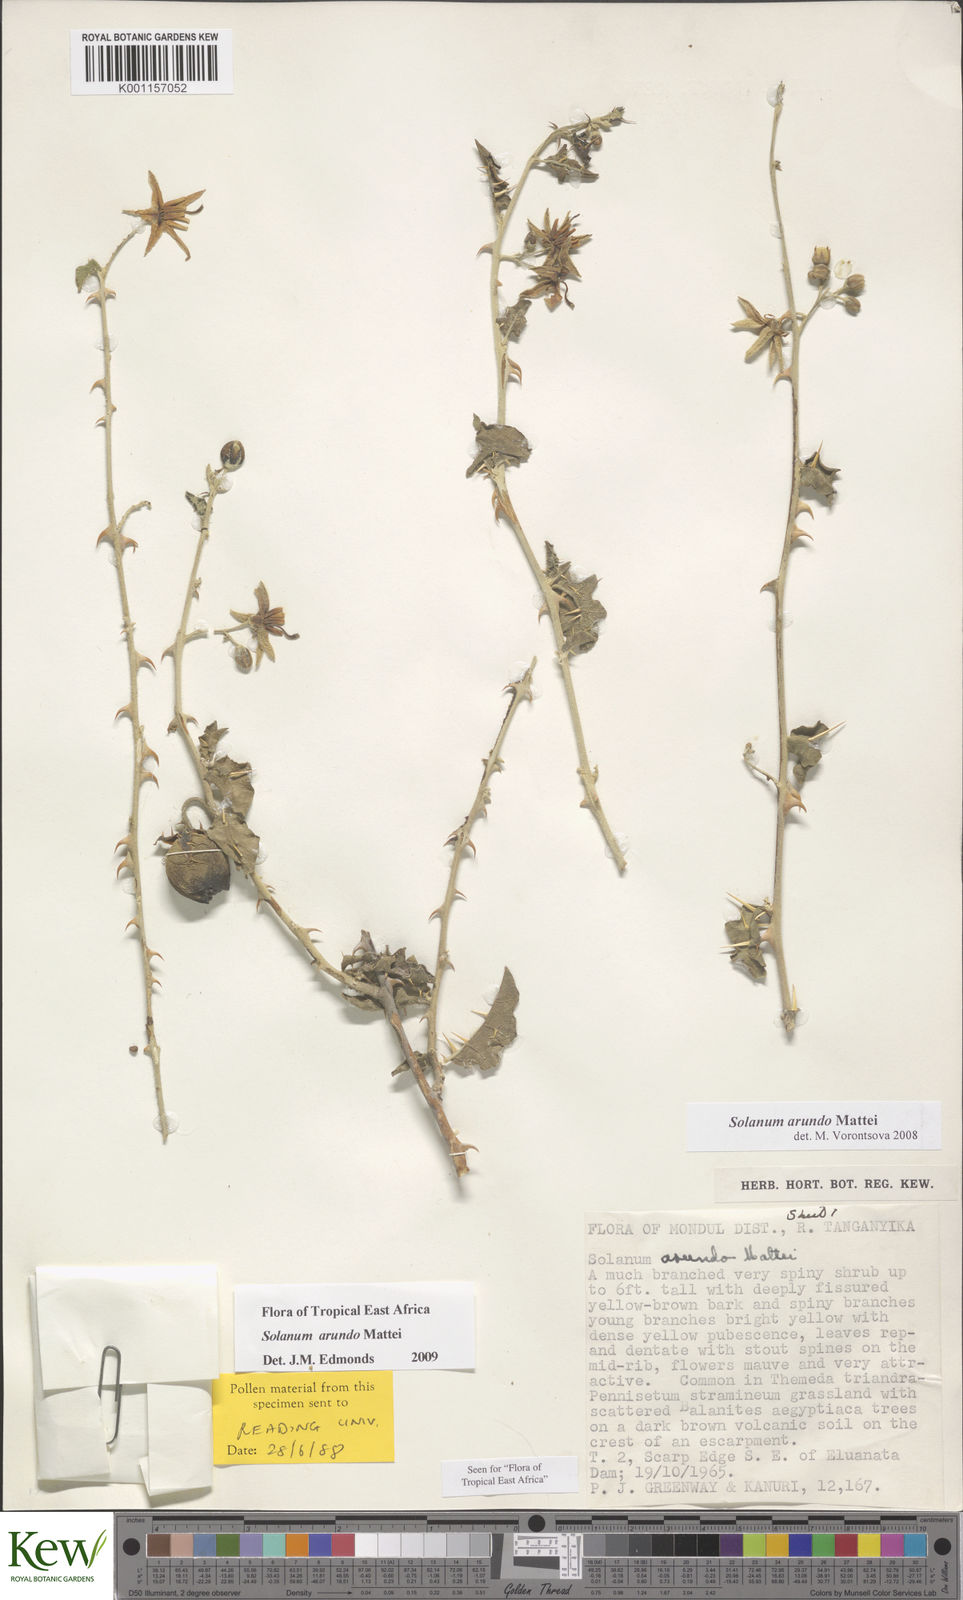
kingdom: Plantae
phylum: Tracheophyta
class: Magnoliopsida
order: Solanales
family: Solanaceae
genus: Solanum
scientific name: Solanum arundo
